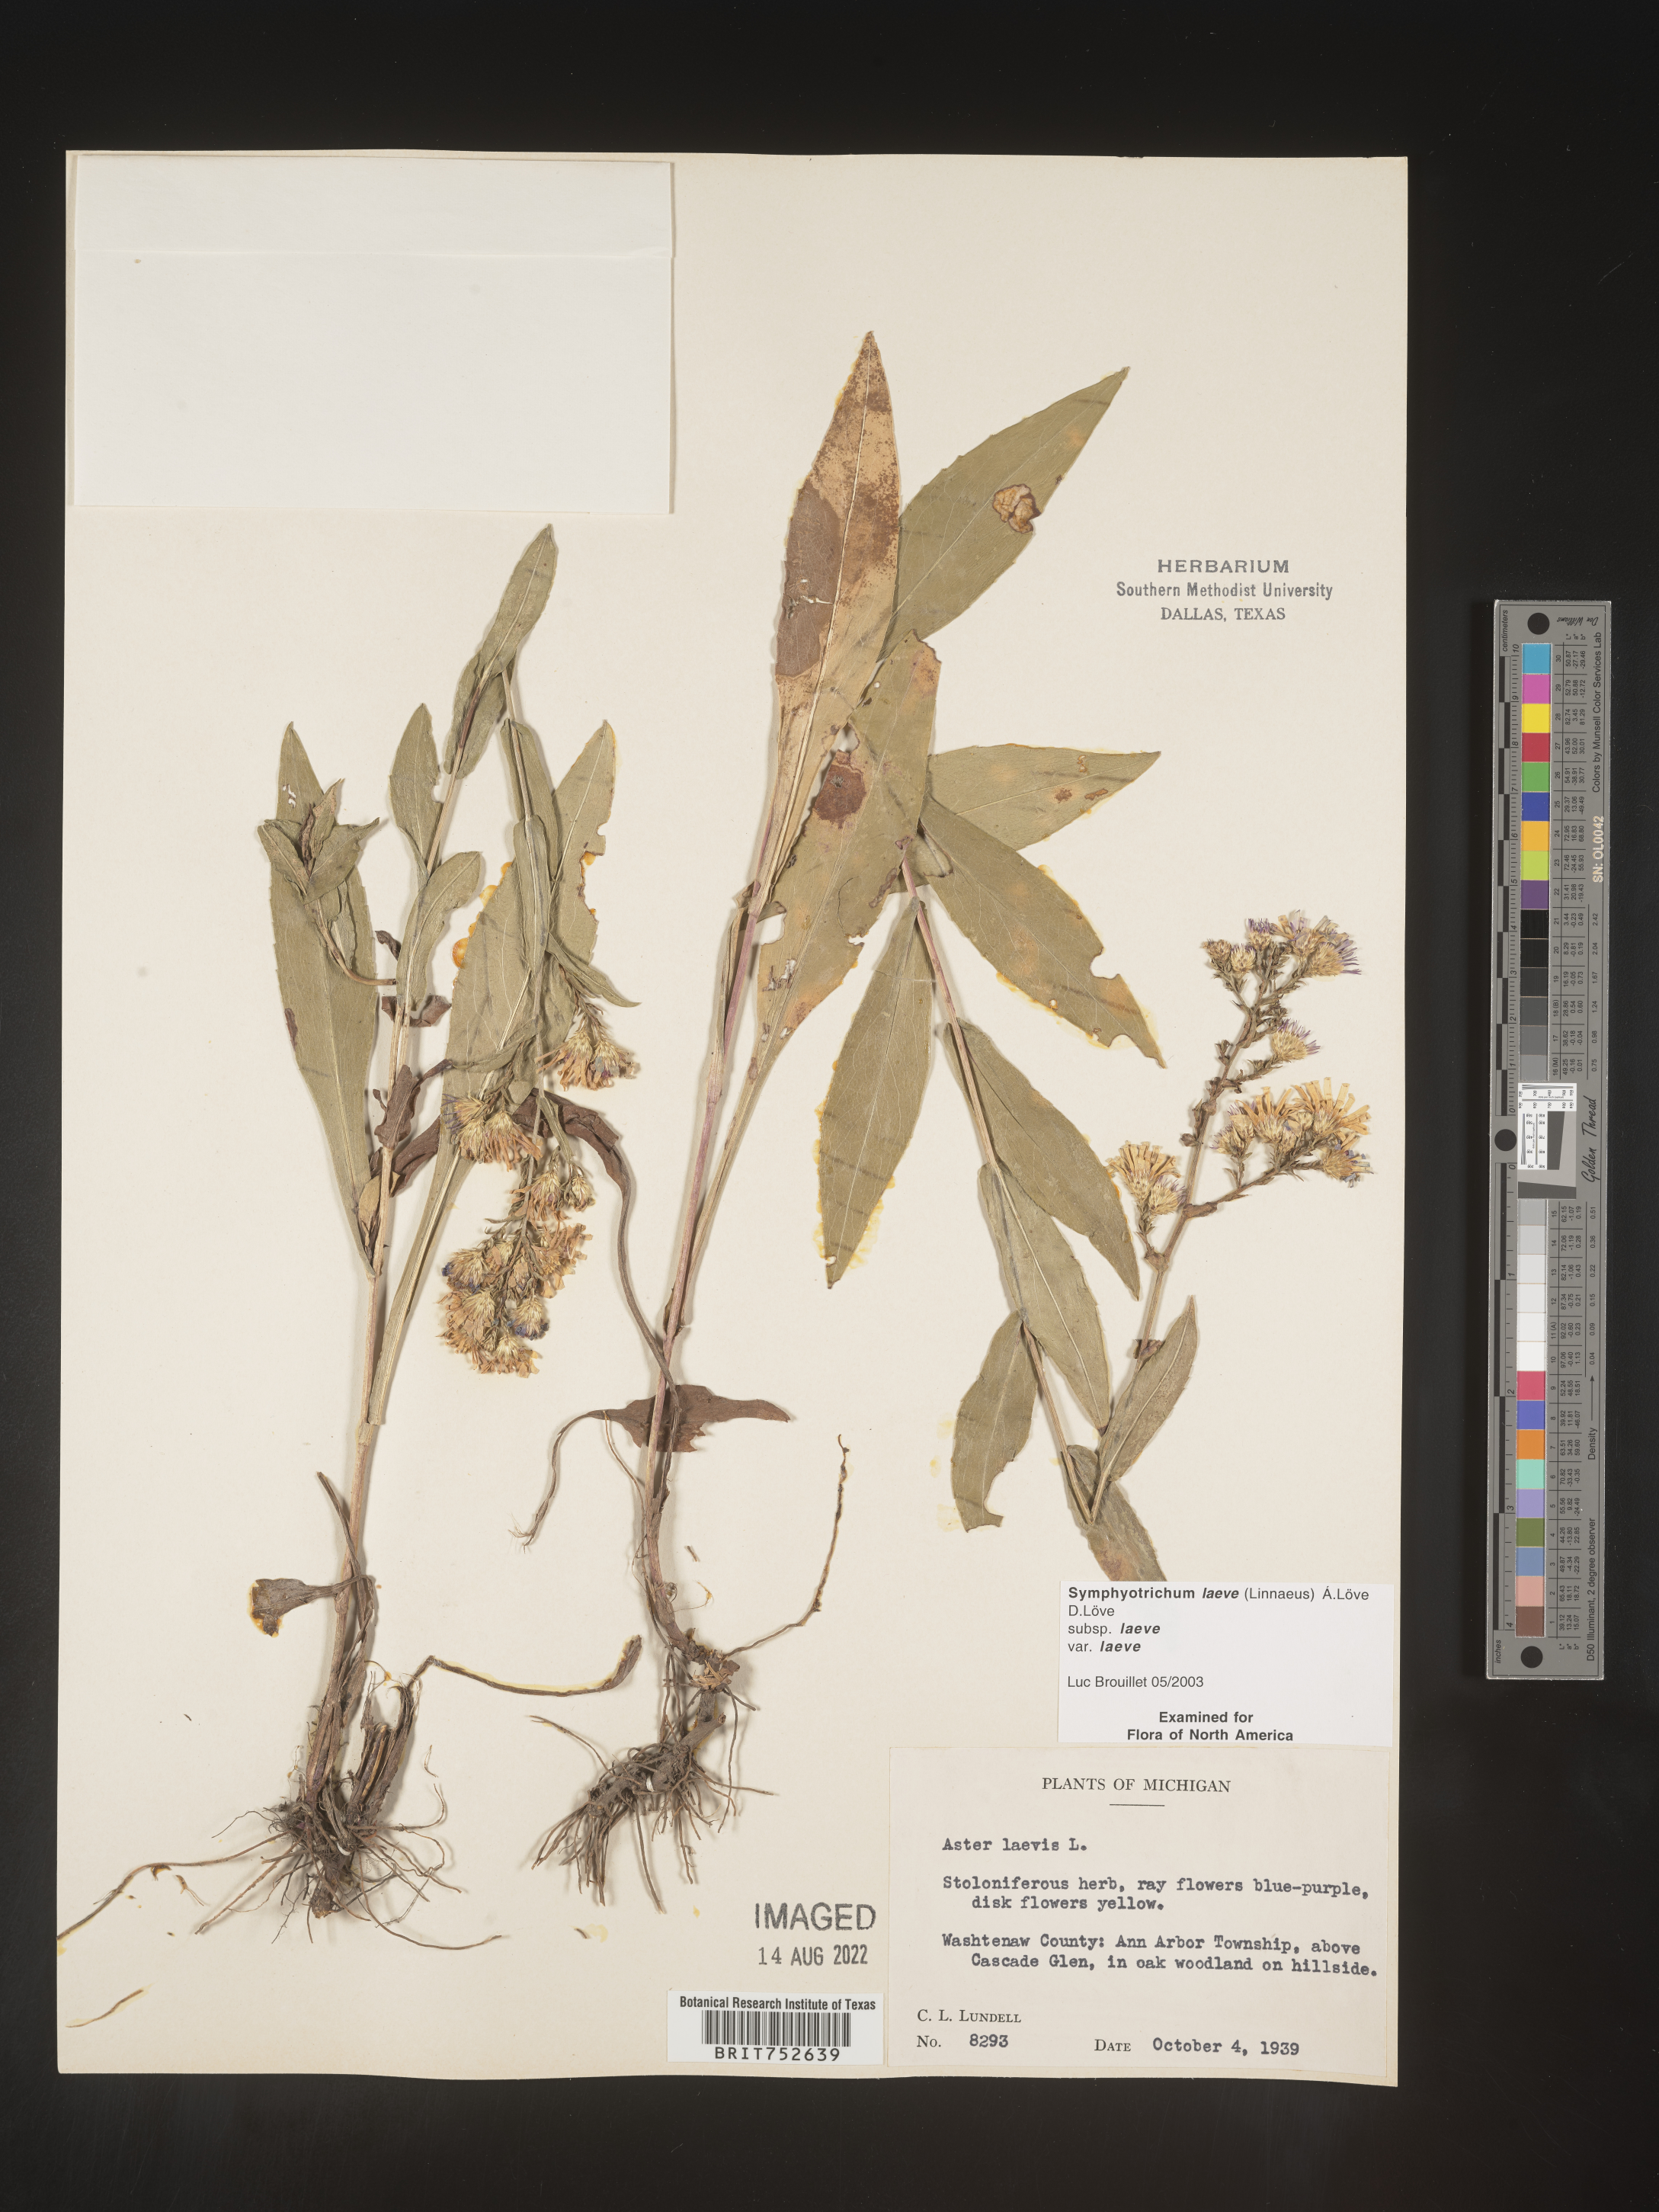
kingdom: Plantae
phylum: Tracheophyta
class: Magnoliopsida
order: Asterales
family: Asteraceae
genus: Symphyotrichum
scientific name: Symphyotrichum laeve
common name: Glaucous aster
